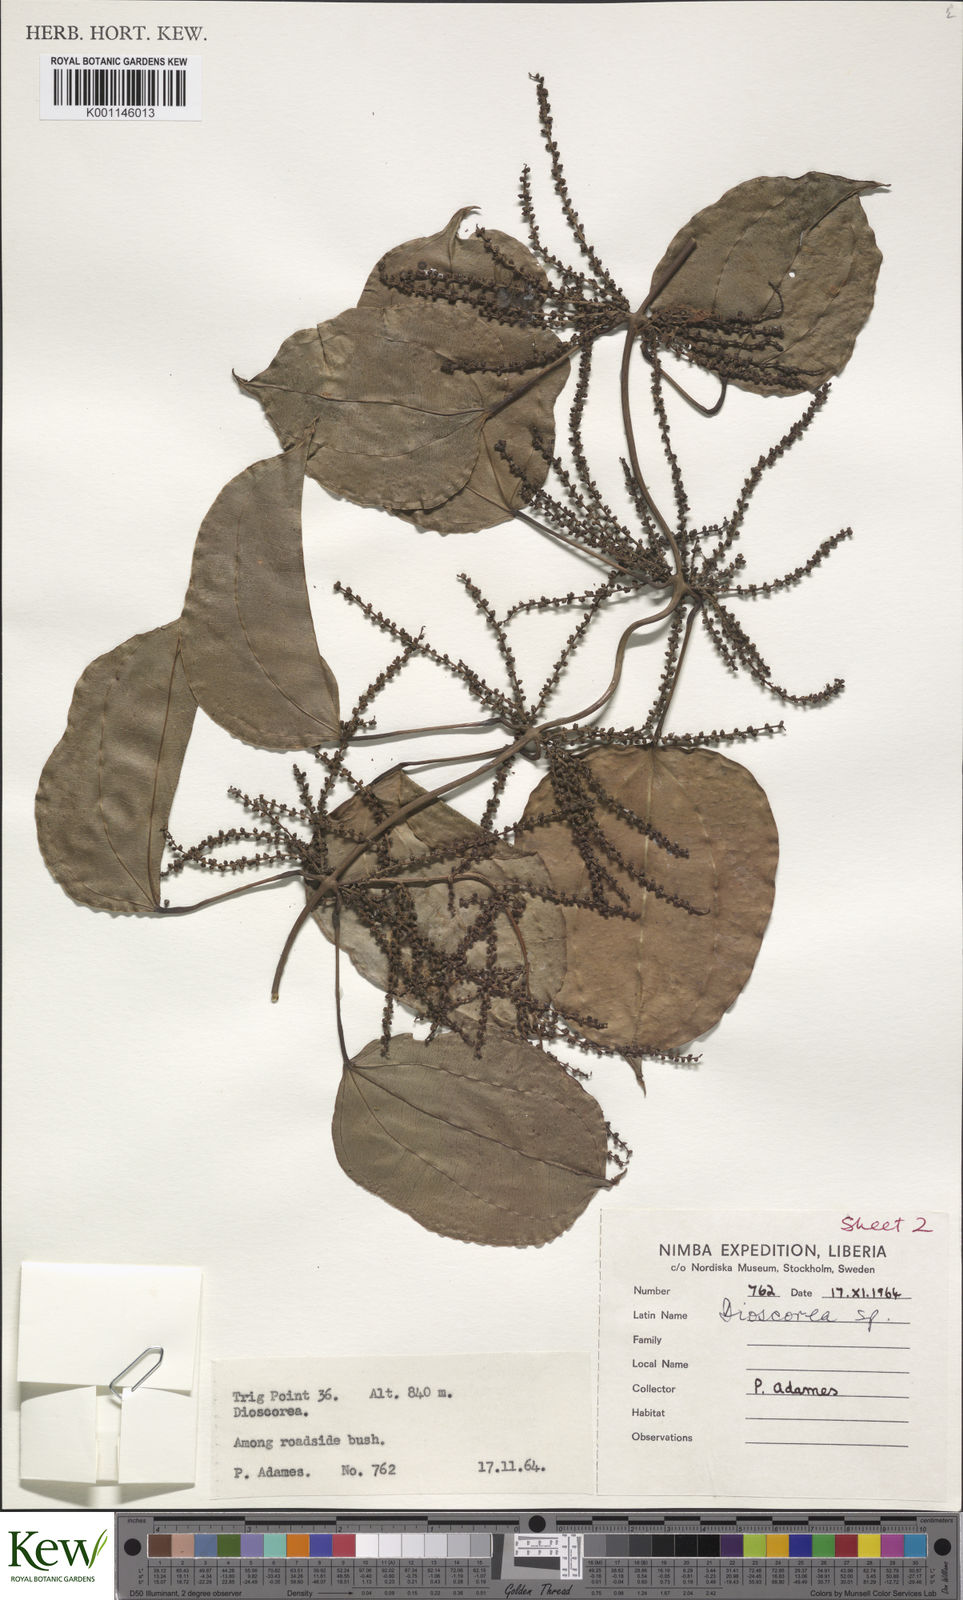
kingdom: Plantae
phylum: Tracheophyta
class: Liliopsida
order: Dioscoreales
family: Dioscoreaceae
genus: Dioscorea
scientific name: Dioscorea minutiflora
